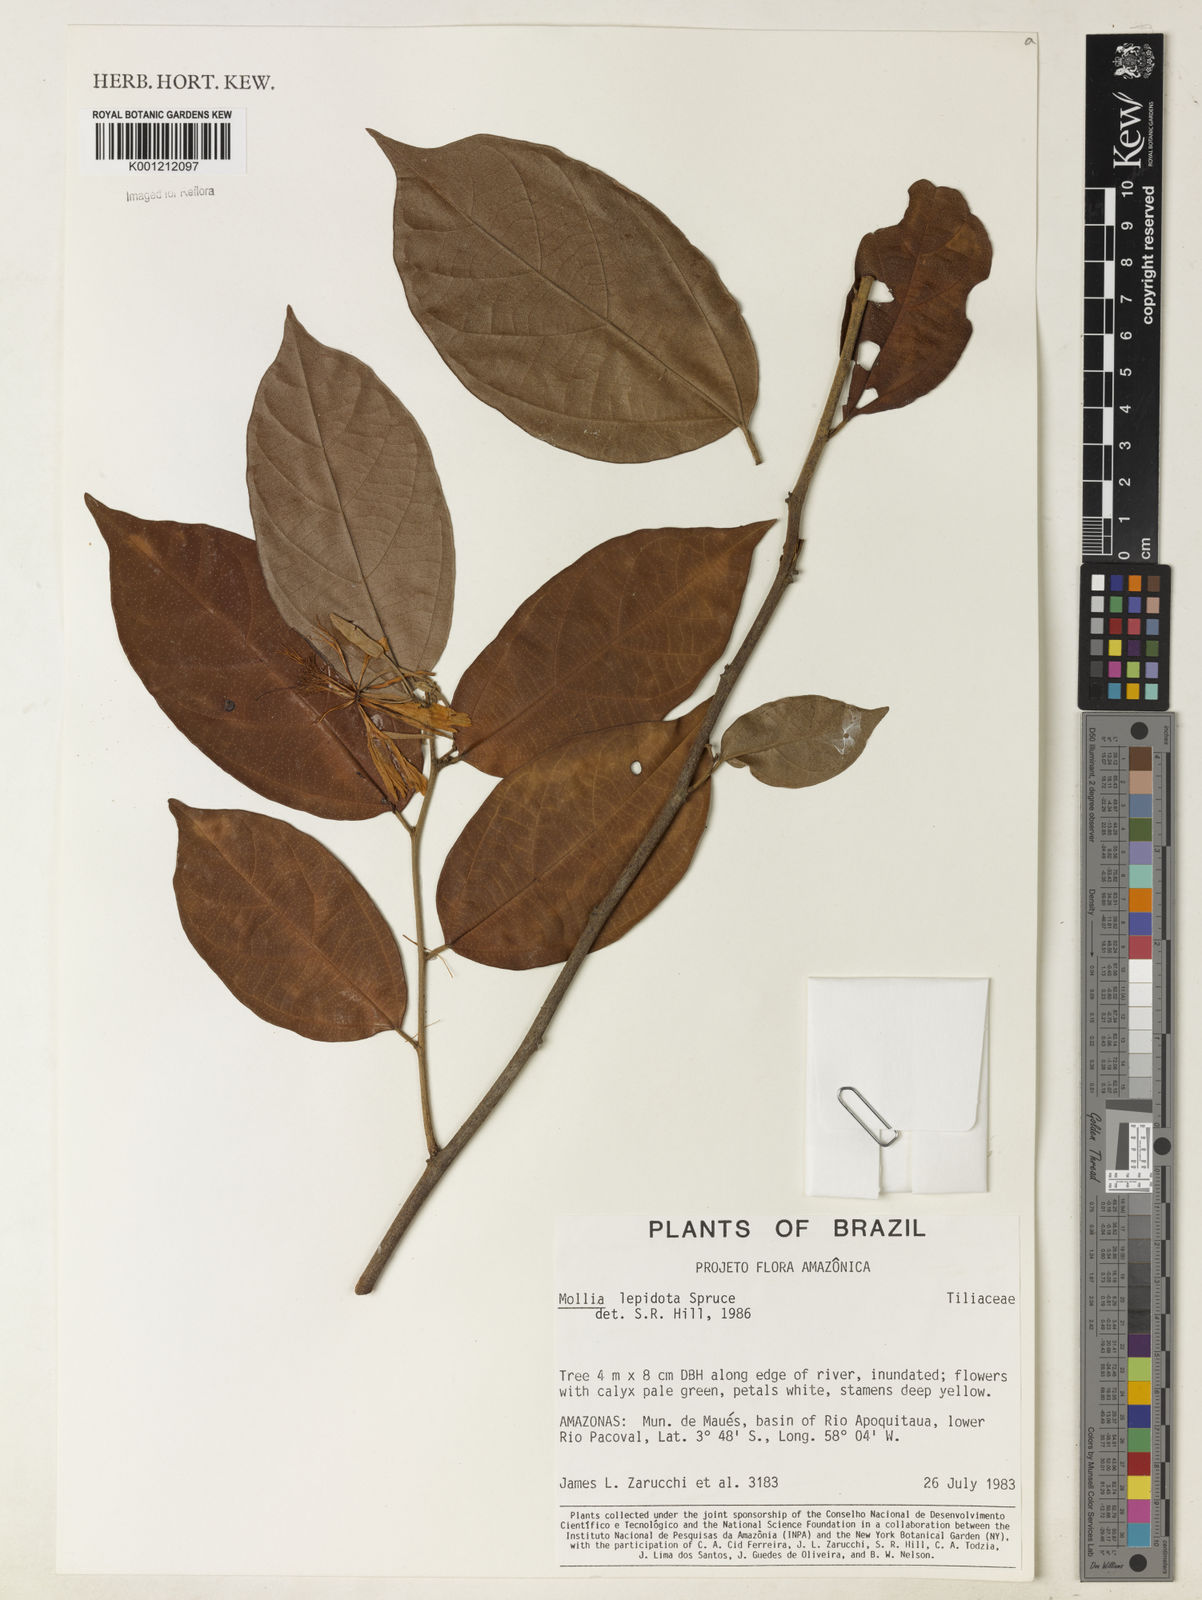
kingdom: Plantae
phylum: Tracheophyta
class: Magnoliopsida
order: Malvales
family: Malvaceae
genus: Mollia
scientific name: Mollia lepidota
